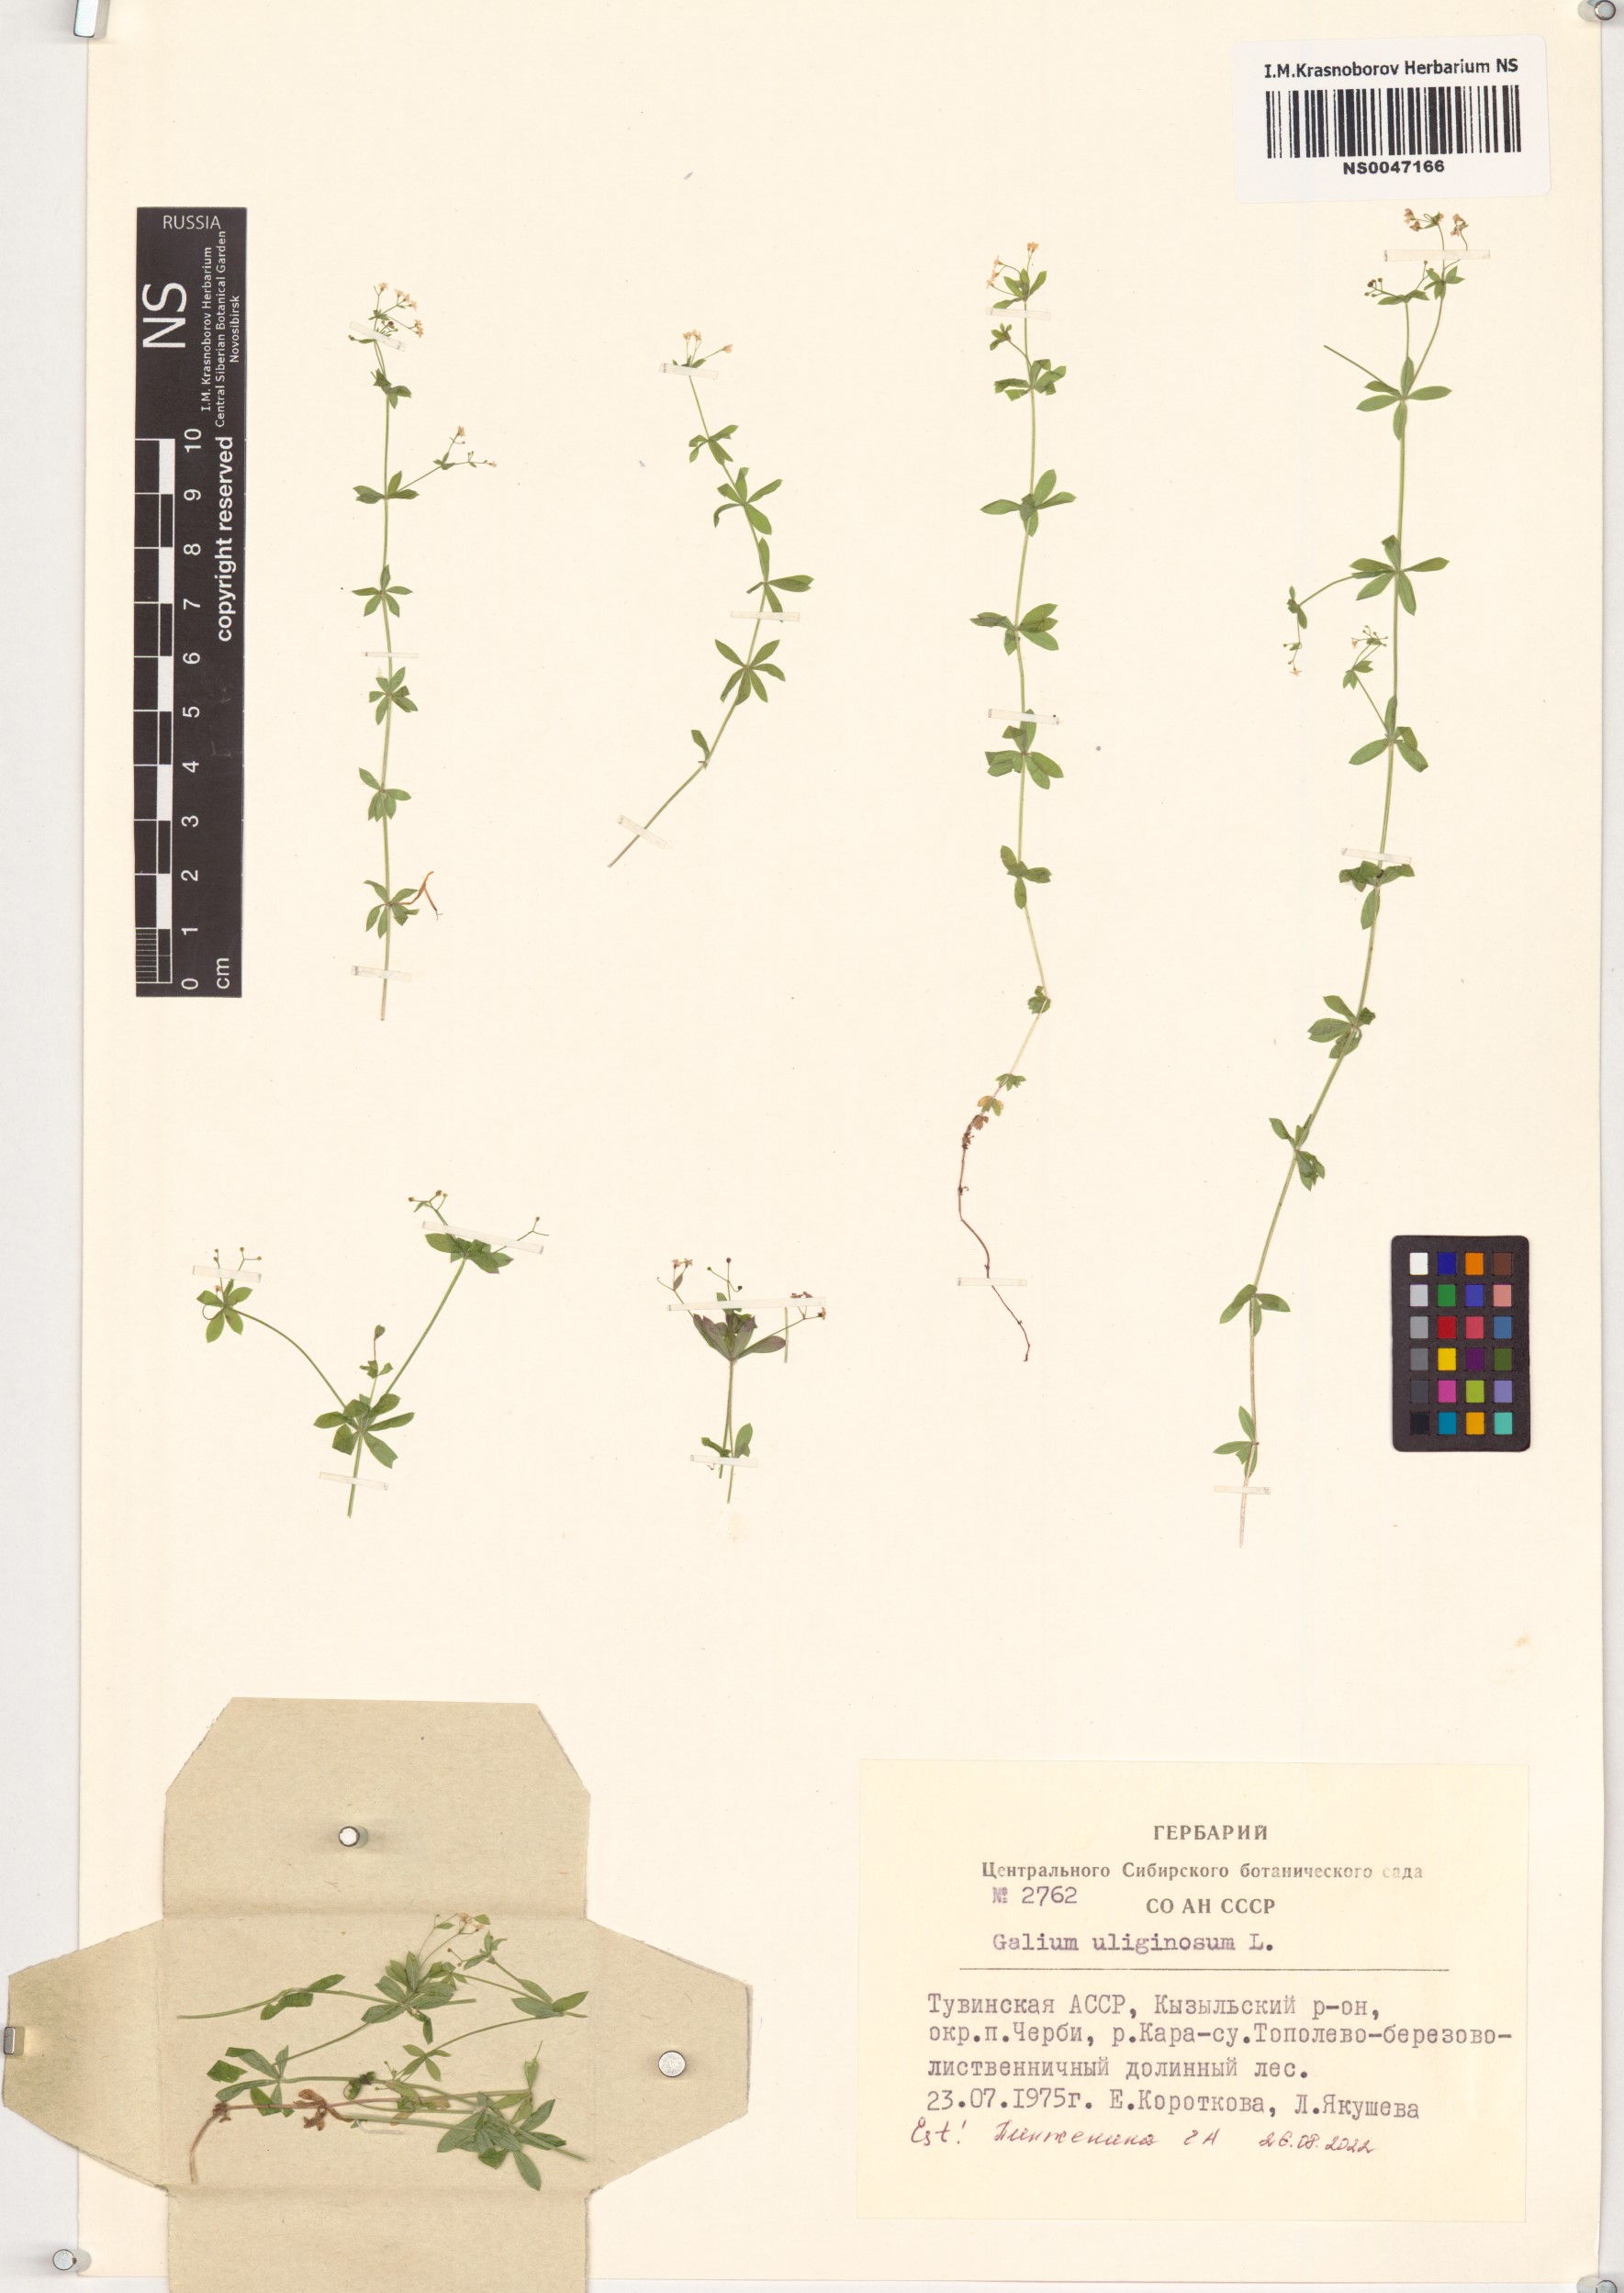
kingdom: Plantae
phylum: Tracheophyta
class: Magnoliopsida
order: Gentianales
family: Rubiaceae
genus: Galium
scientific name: Galium uliginosum
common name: Fen bedstraw
